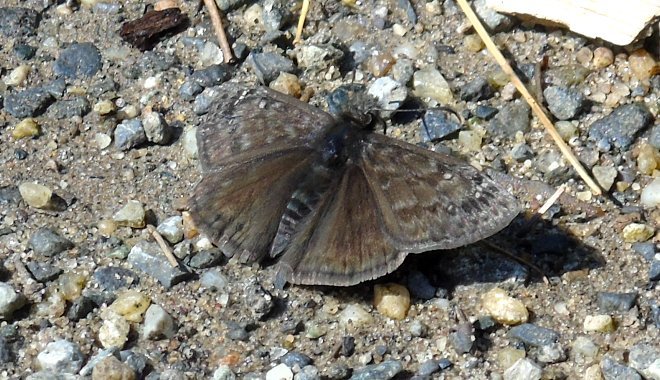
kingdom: Animalia
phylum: Arthropoda
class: Insecta
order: Lepidoptera
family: Hesperiidae
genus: Erynnis
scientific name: Erynnis
